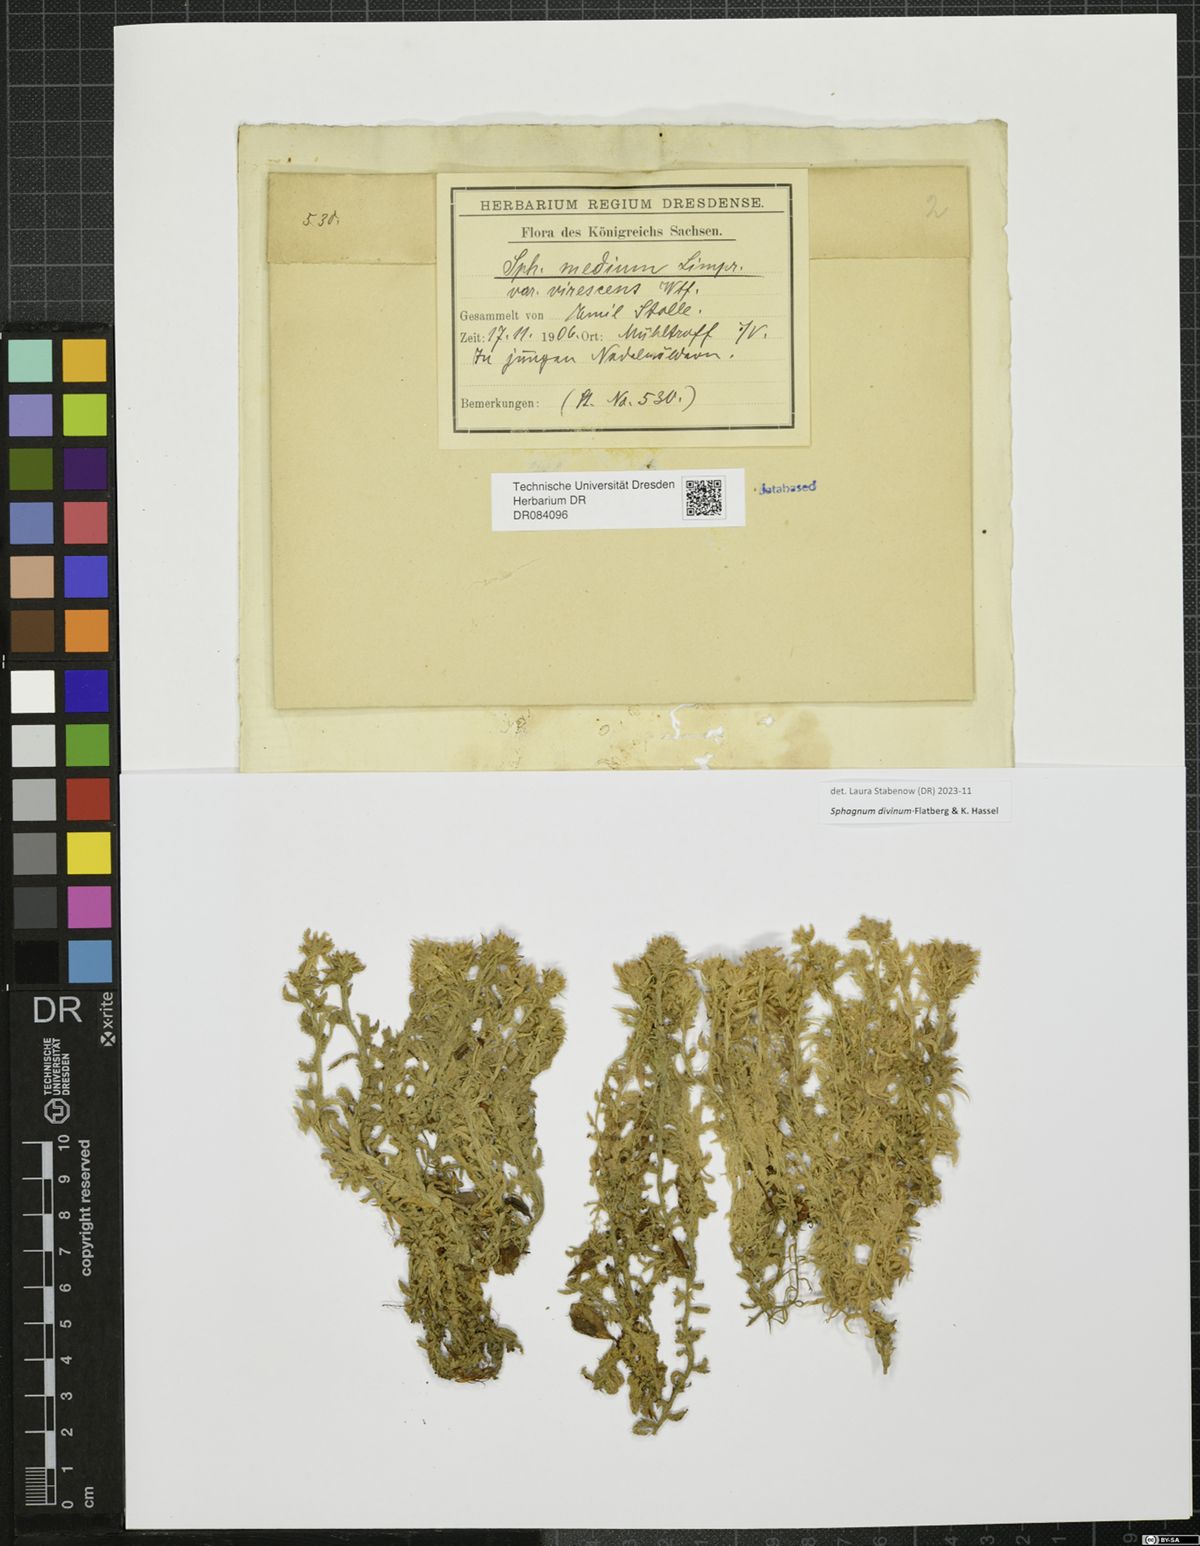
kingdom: Plantae
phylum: Bryophyta
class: Sphagnopsida
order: Sphagnales
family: Sphagnaceae
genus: Sphagnum
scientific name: Sphagnum divinum
